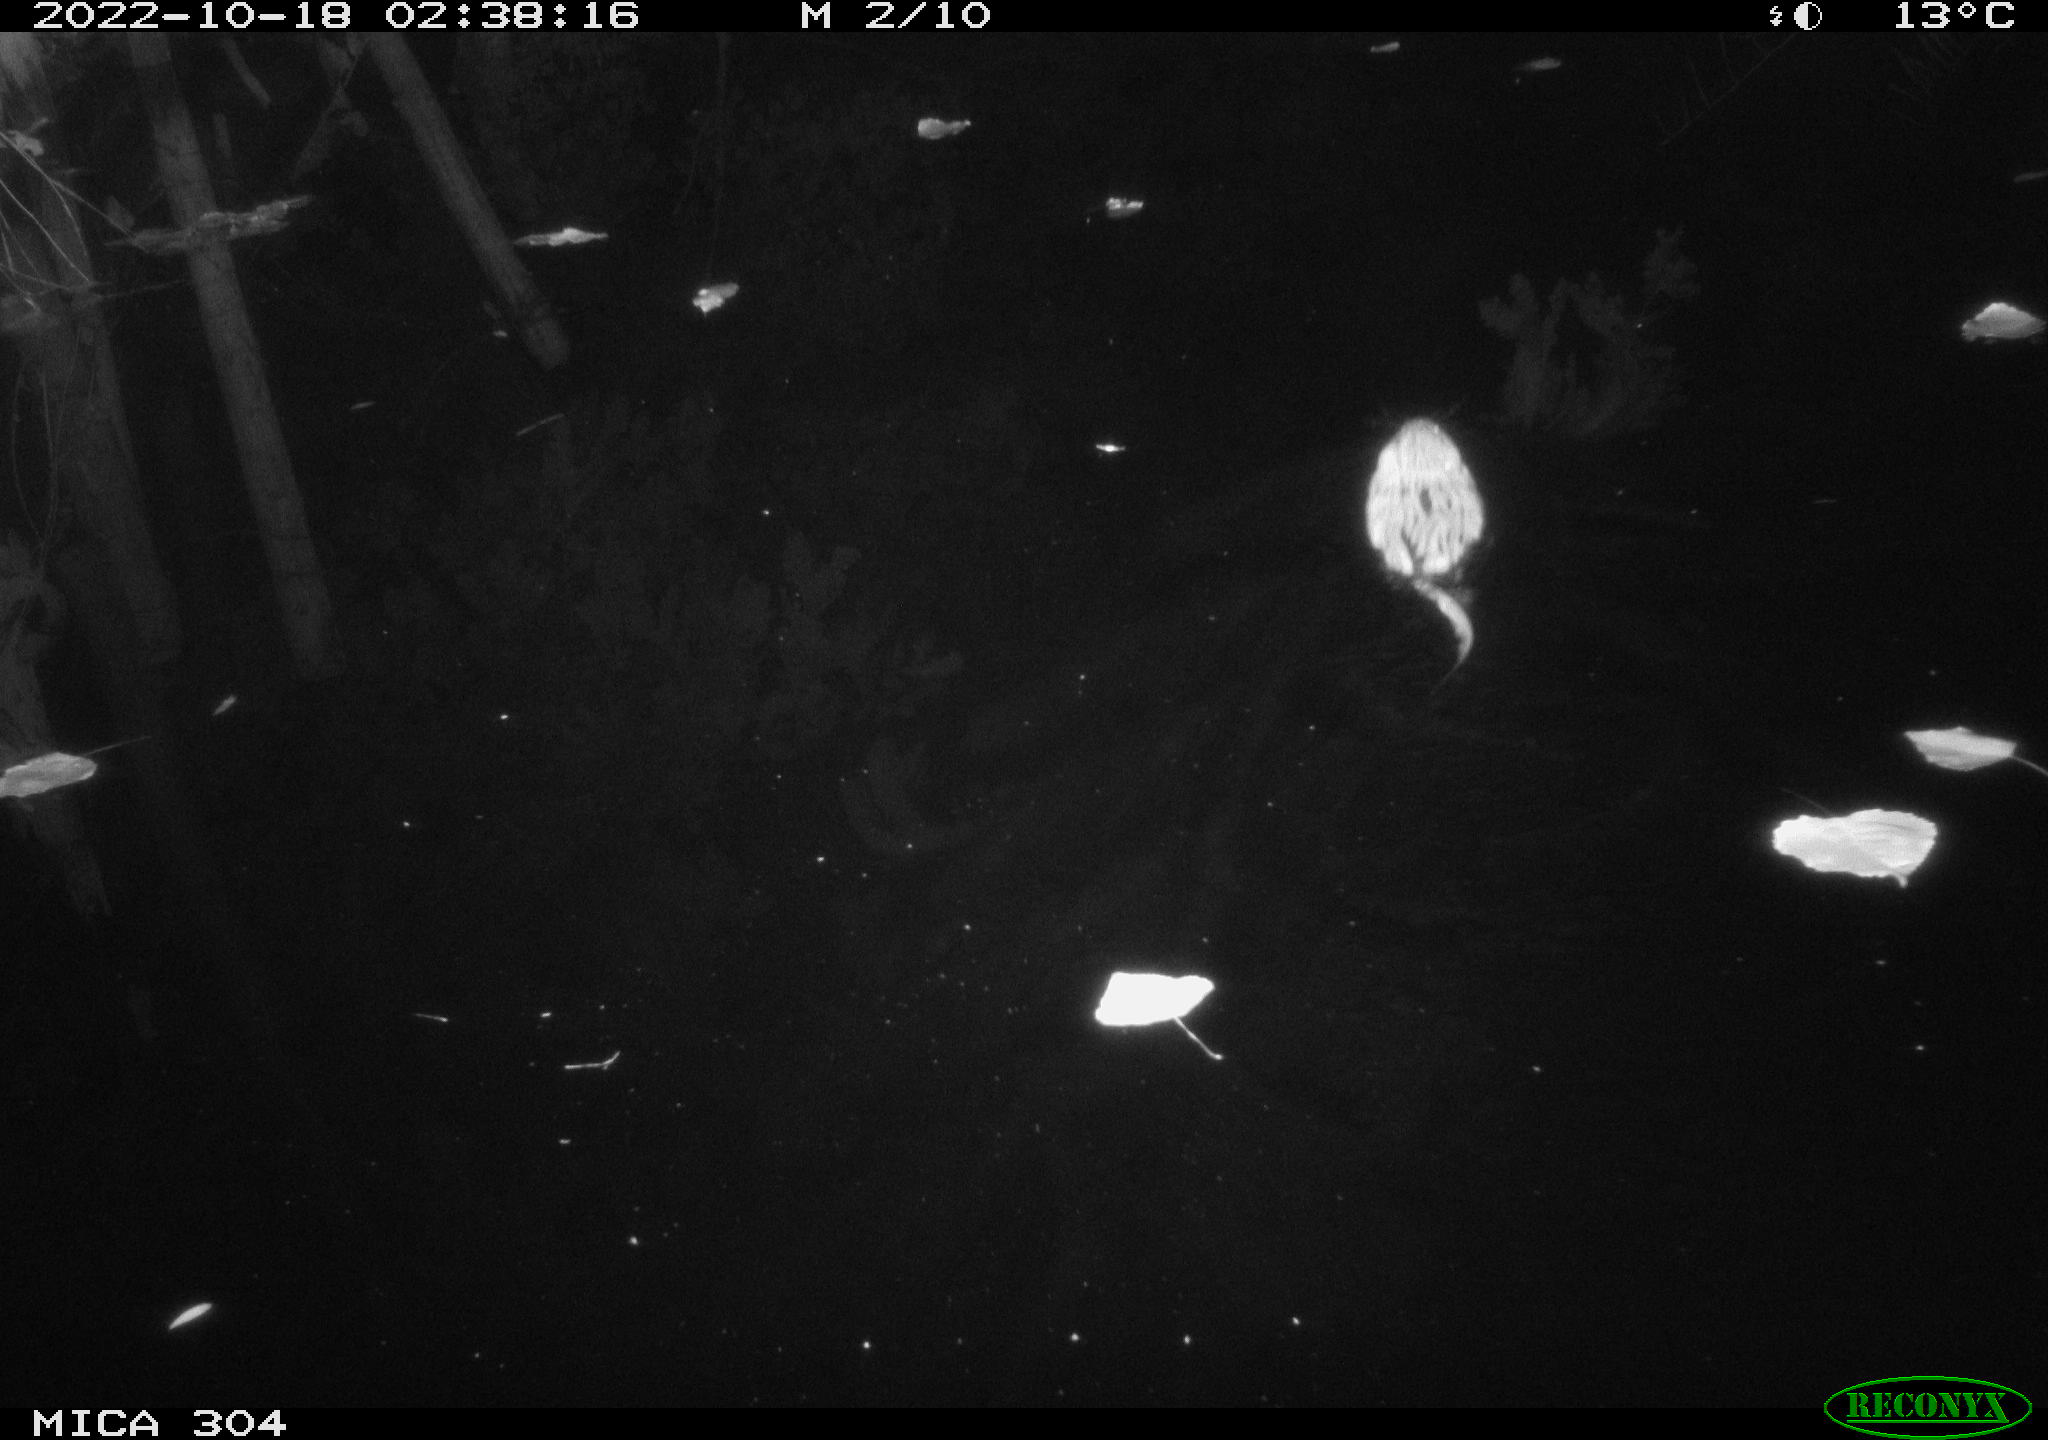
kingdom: Animalia
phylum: Chordata
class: Mammalia
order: Rodentia
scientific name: Rodentia
